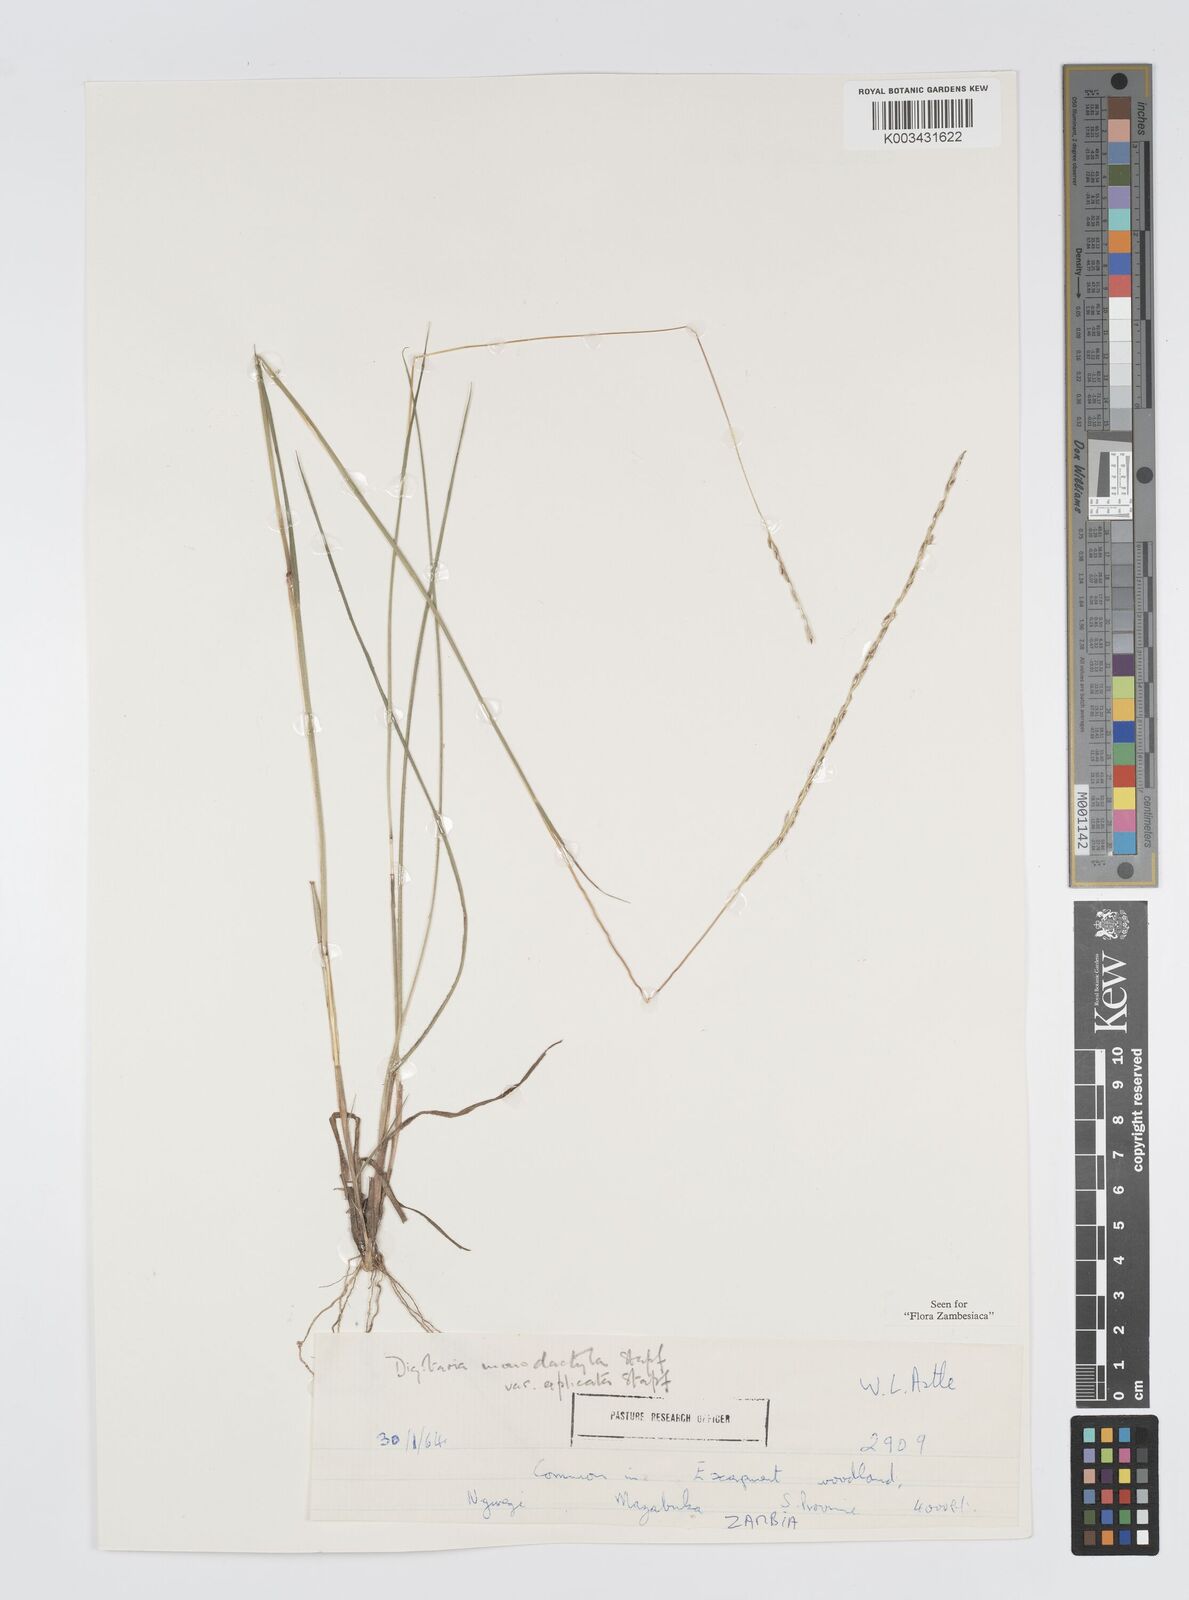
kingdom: Plantae
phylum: Tracheophyta
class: Liliopsida
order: Poales
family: Poaceae
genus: Digitaria
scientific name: Digitaria monodactyla
